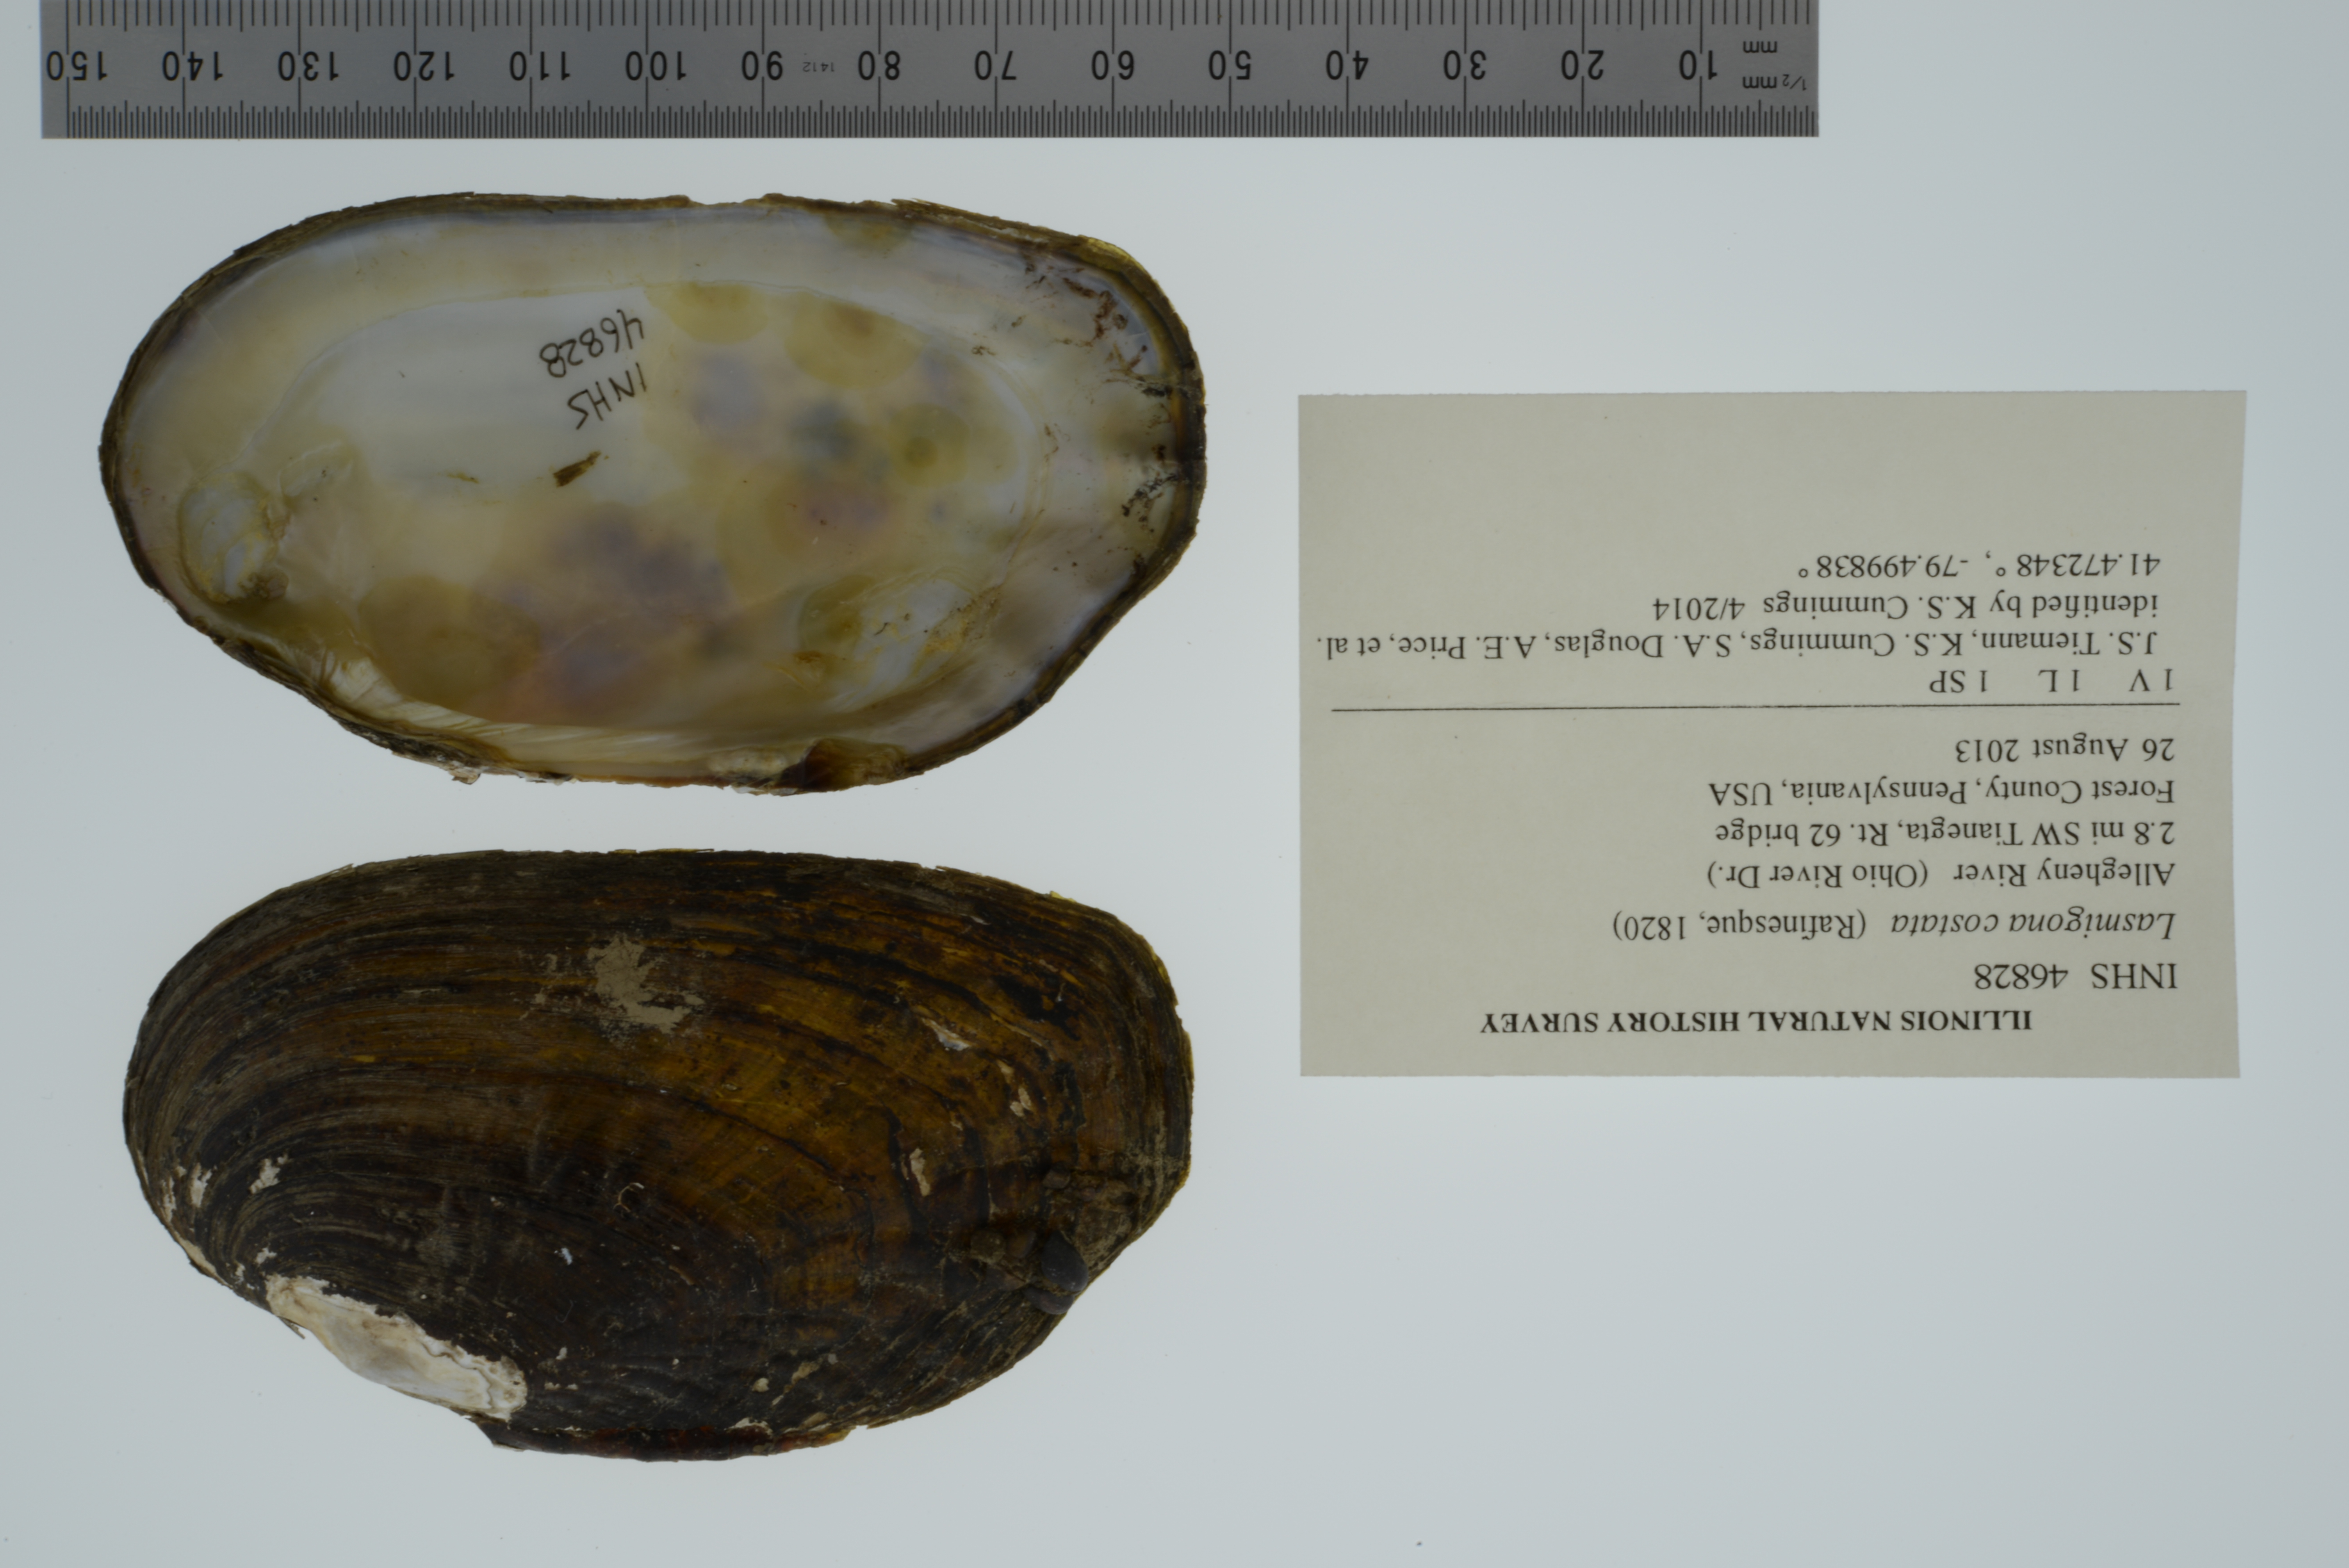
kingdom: Animalia
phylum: Mollusca
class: Bivalvia
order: Unionida
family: Unionidae
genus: Lasmigona
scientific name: Lasmigona costata
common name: Flutedshell
